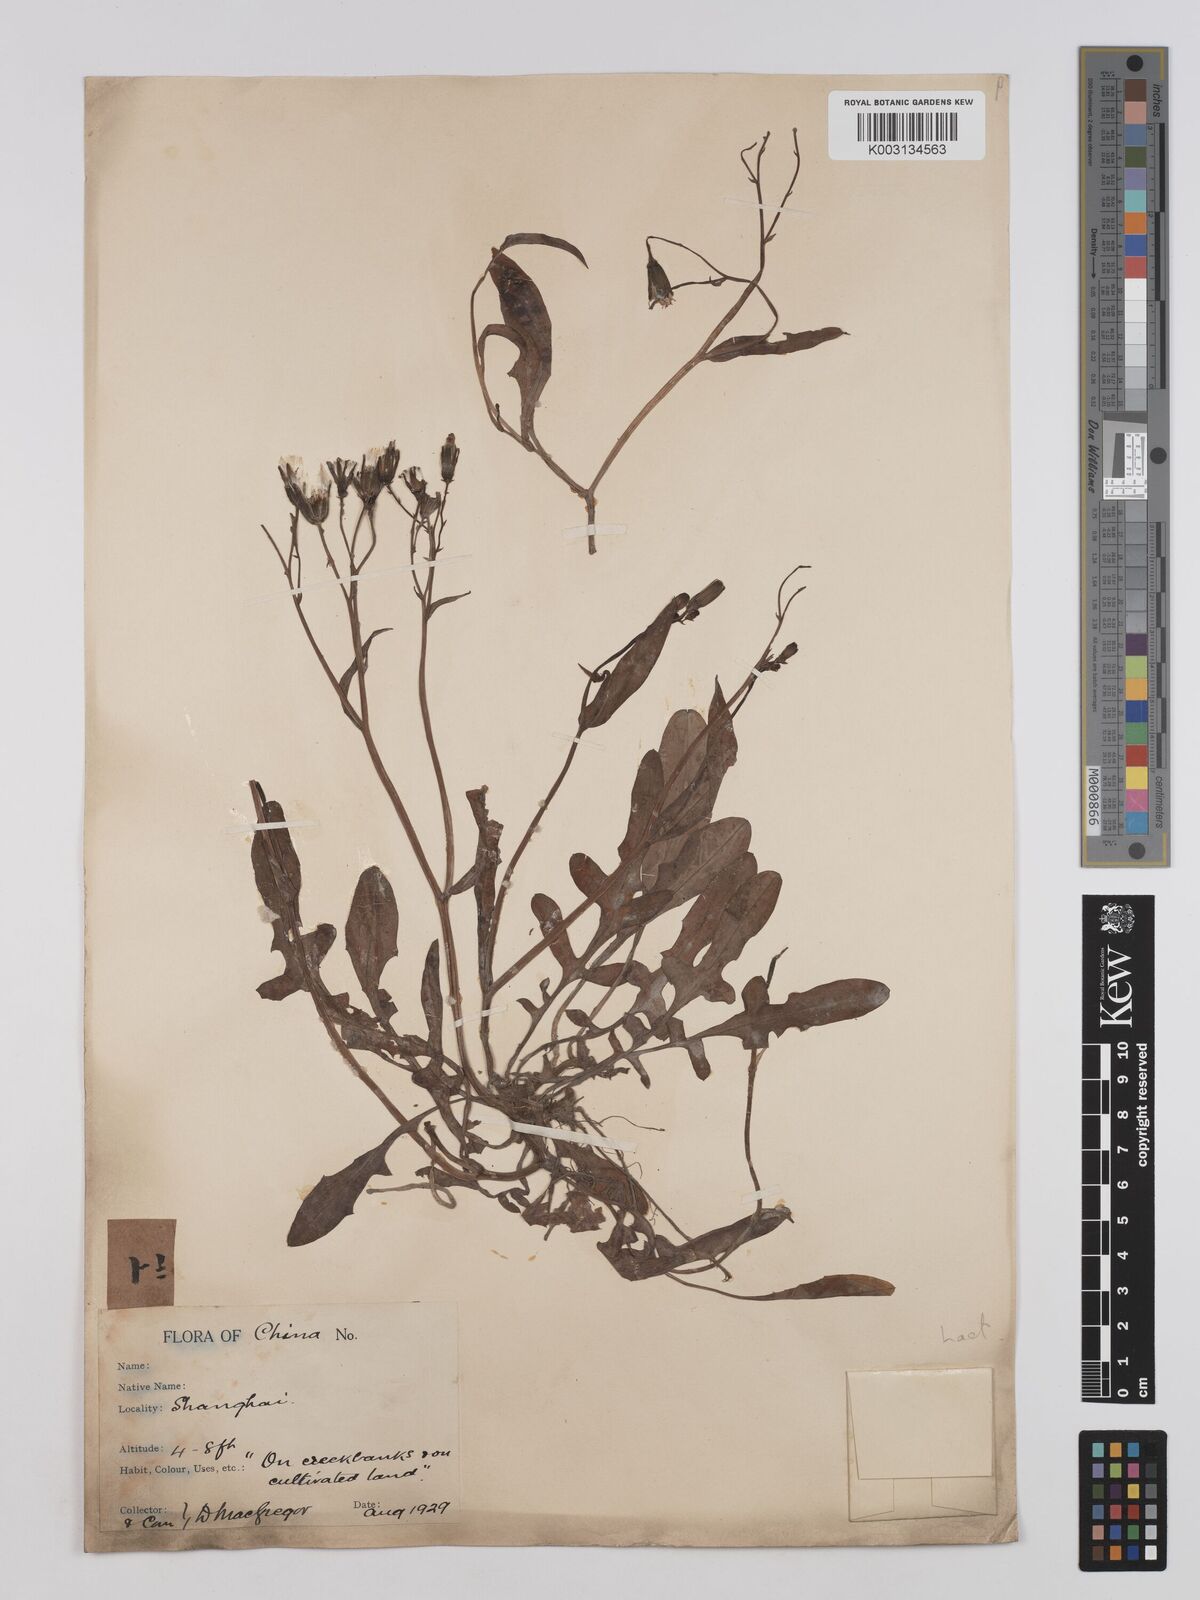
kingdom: Plantae
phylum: Tracheophyta
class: Magnoliopsida
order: Asterales
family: Asteraceae
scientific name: Asteraceae
